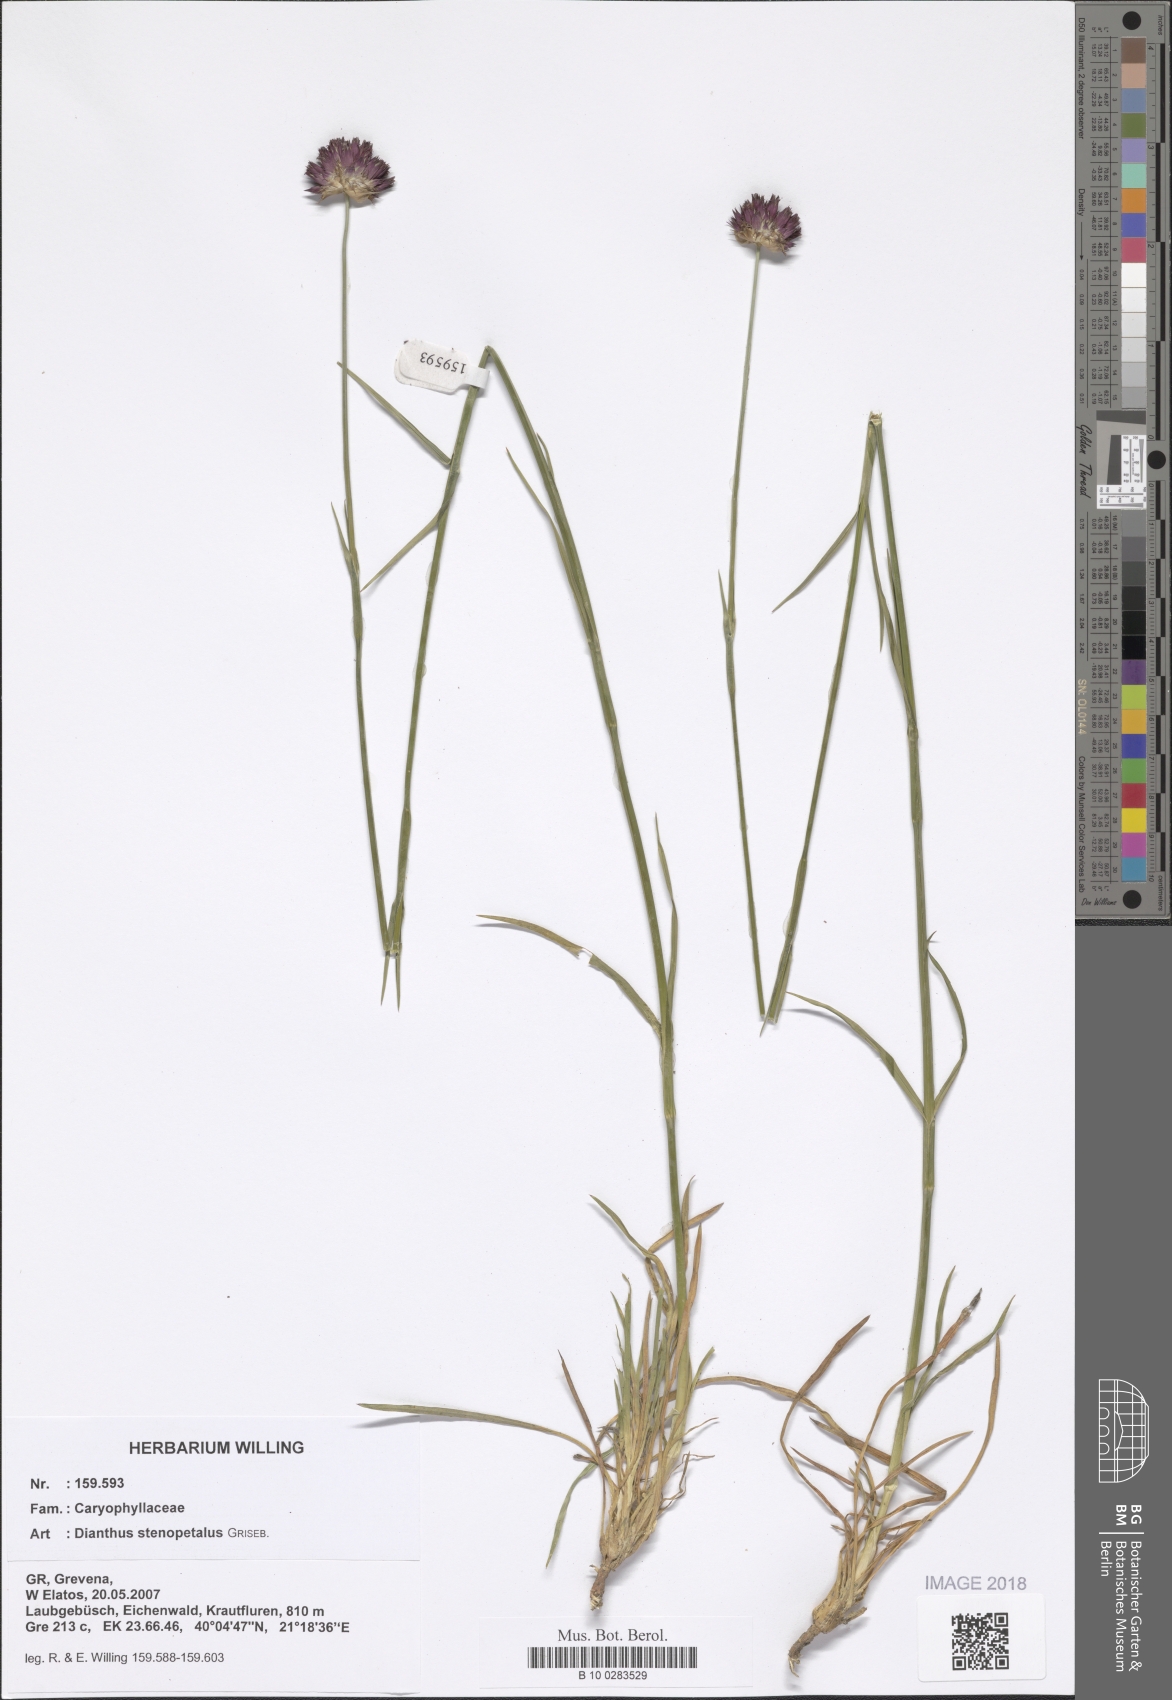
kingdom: Plantae
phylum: Tracheophyta
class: Magnoliopsida
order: Caryophyllales
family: Caryophyllaceae
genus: Dianthus
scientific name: Dianthus stenopetalus
